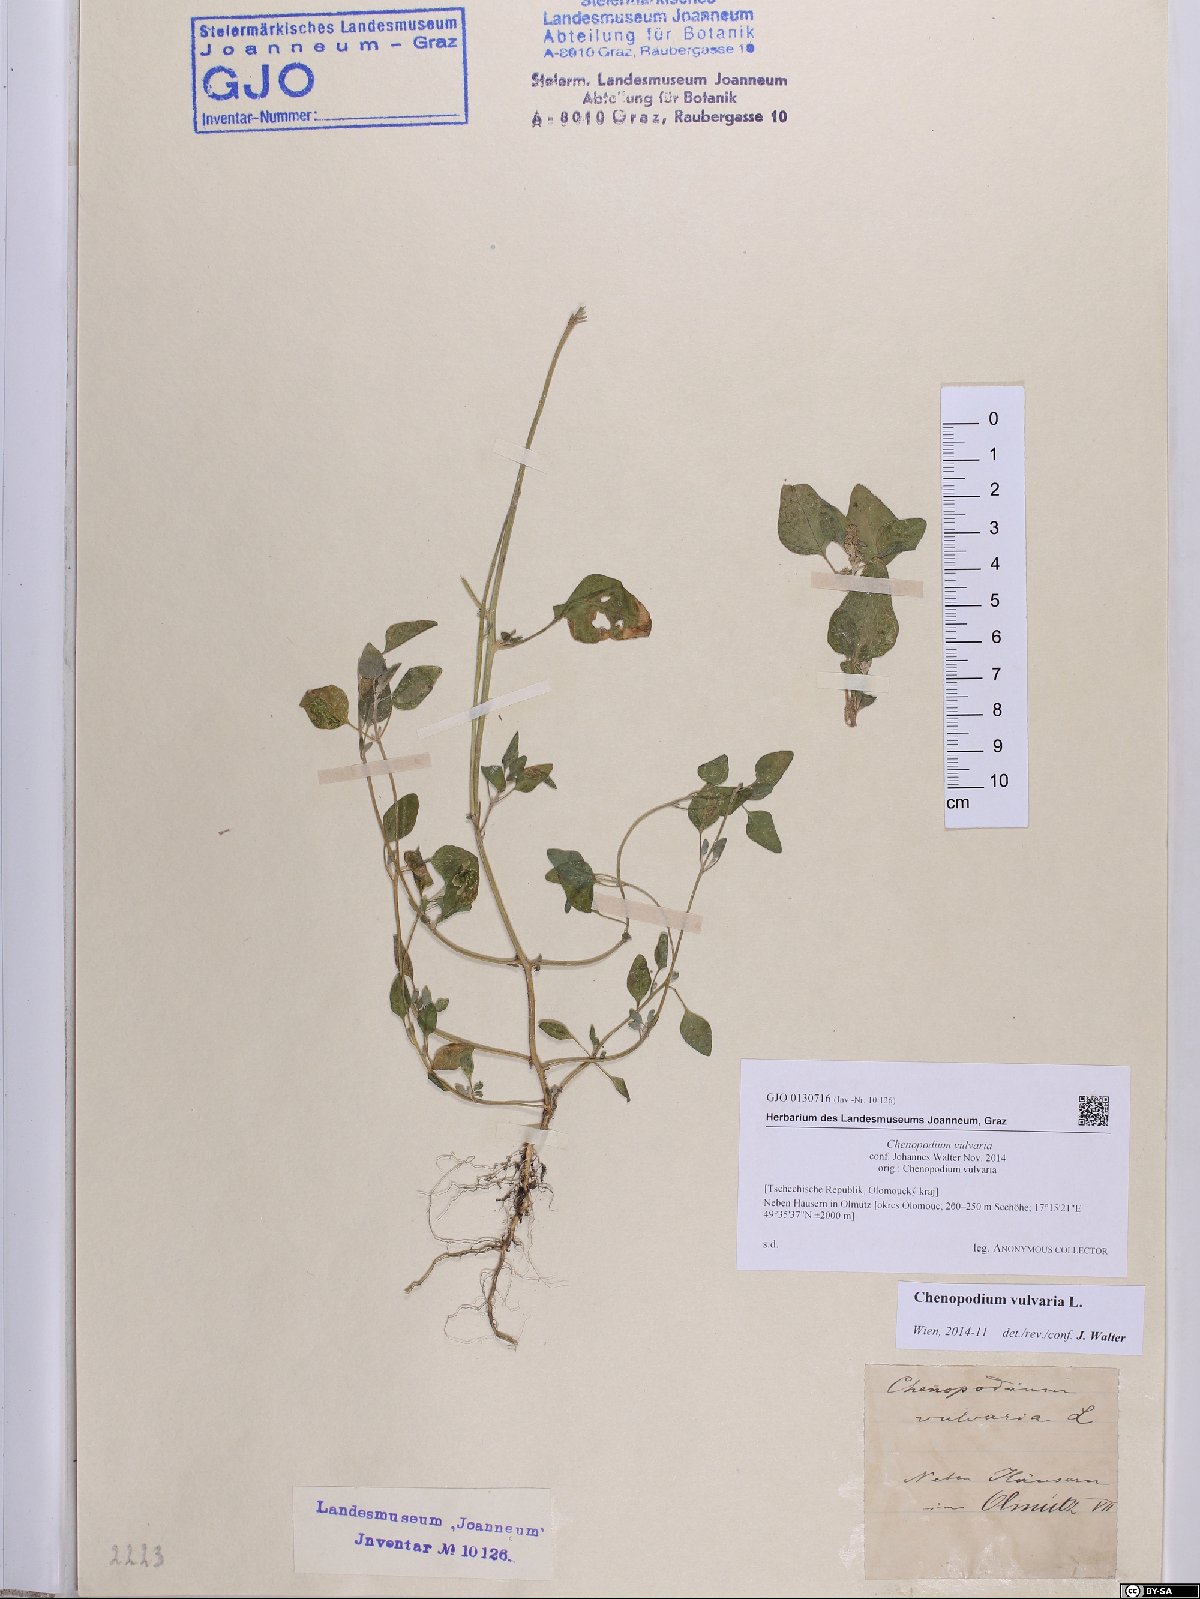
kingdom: Plantae
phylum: Tracheophyta
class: Magnoliopsida
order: Caryophyllales
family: Amaranthaceae
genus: Chenopodium
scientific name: Chenopodium vulvaria
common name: Stinking goosefoot
